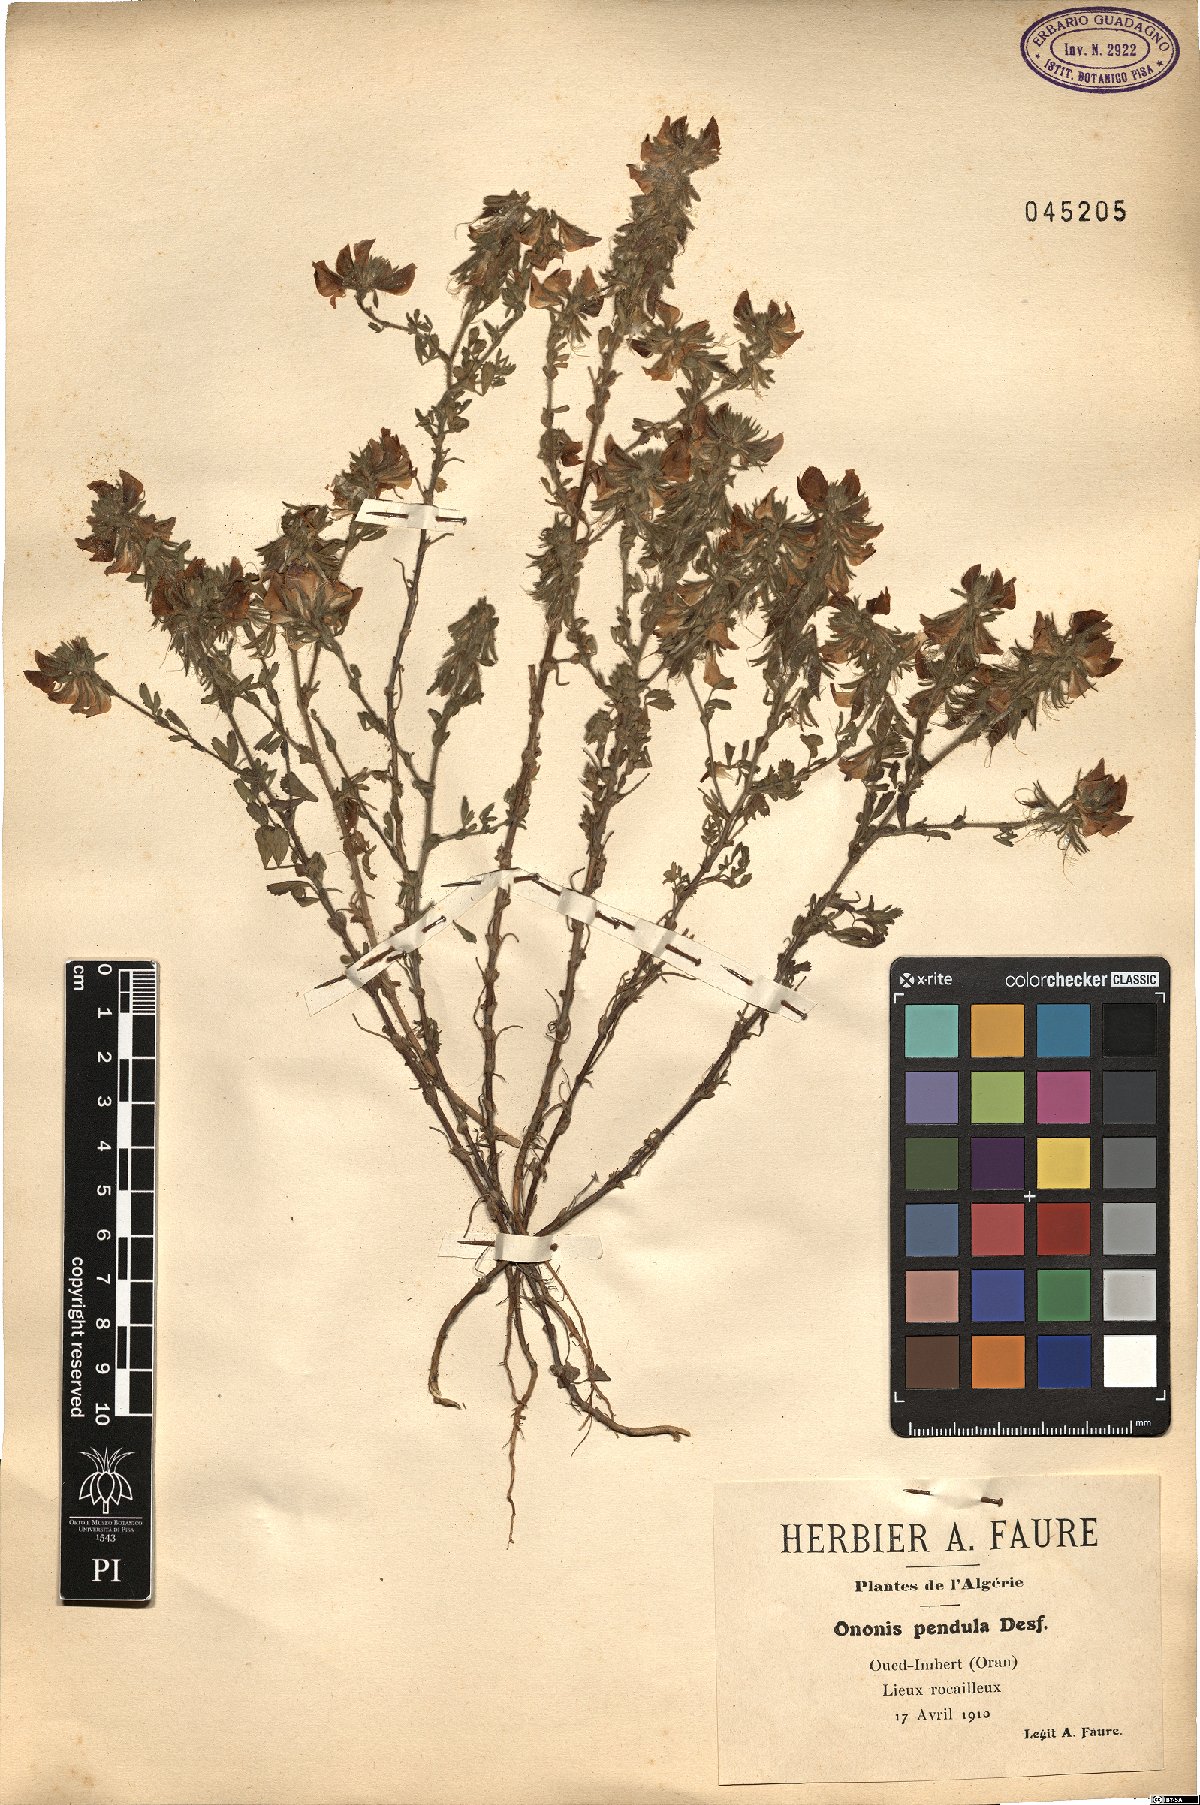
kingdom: Plantae
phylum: Tracheophyta
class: Magnoliopsida
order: Fabales
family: Fabaceae
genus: Ononis
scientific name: Ononis pendula
